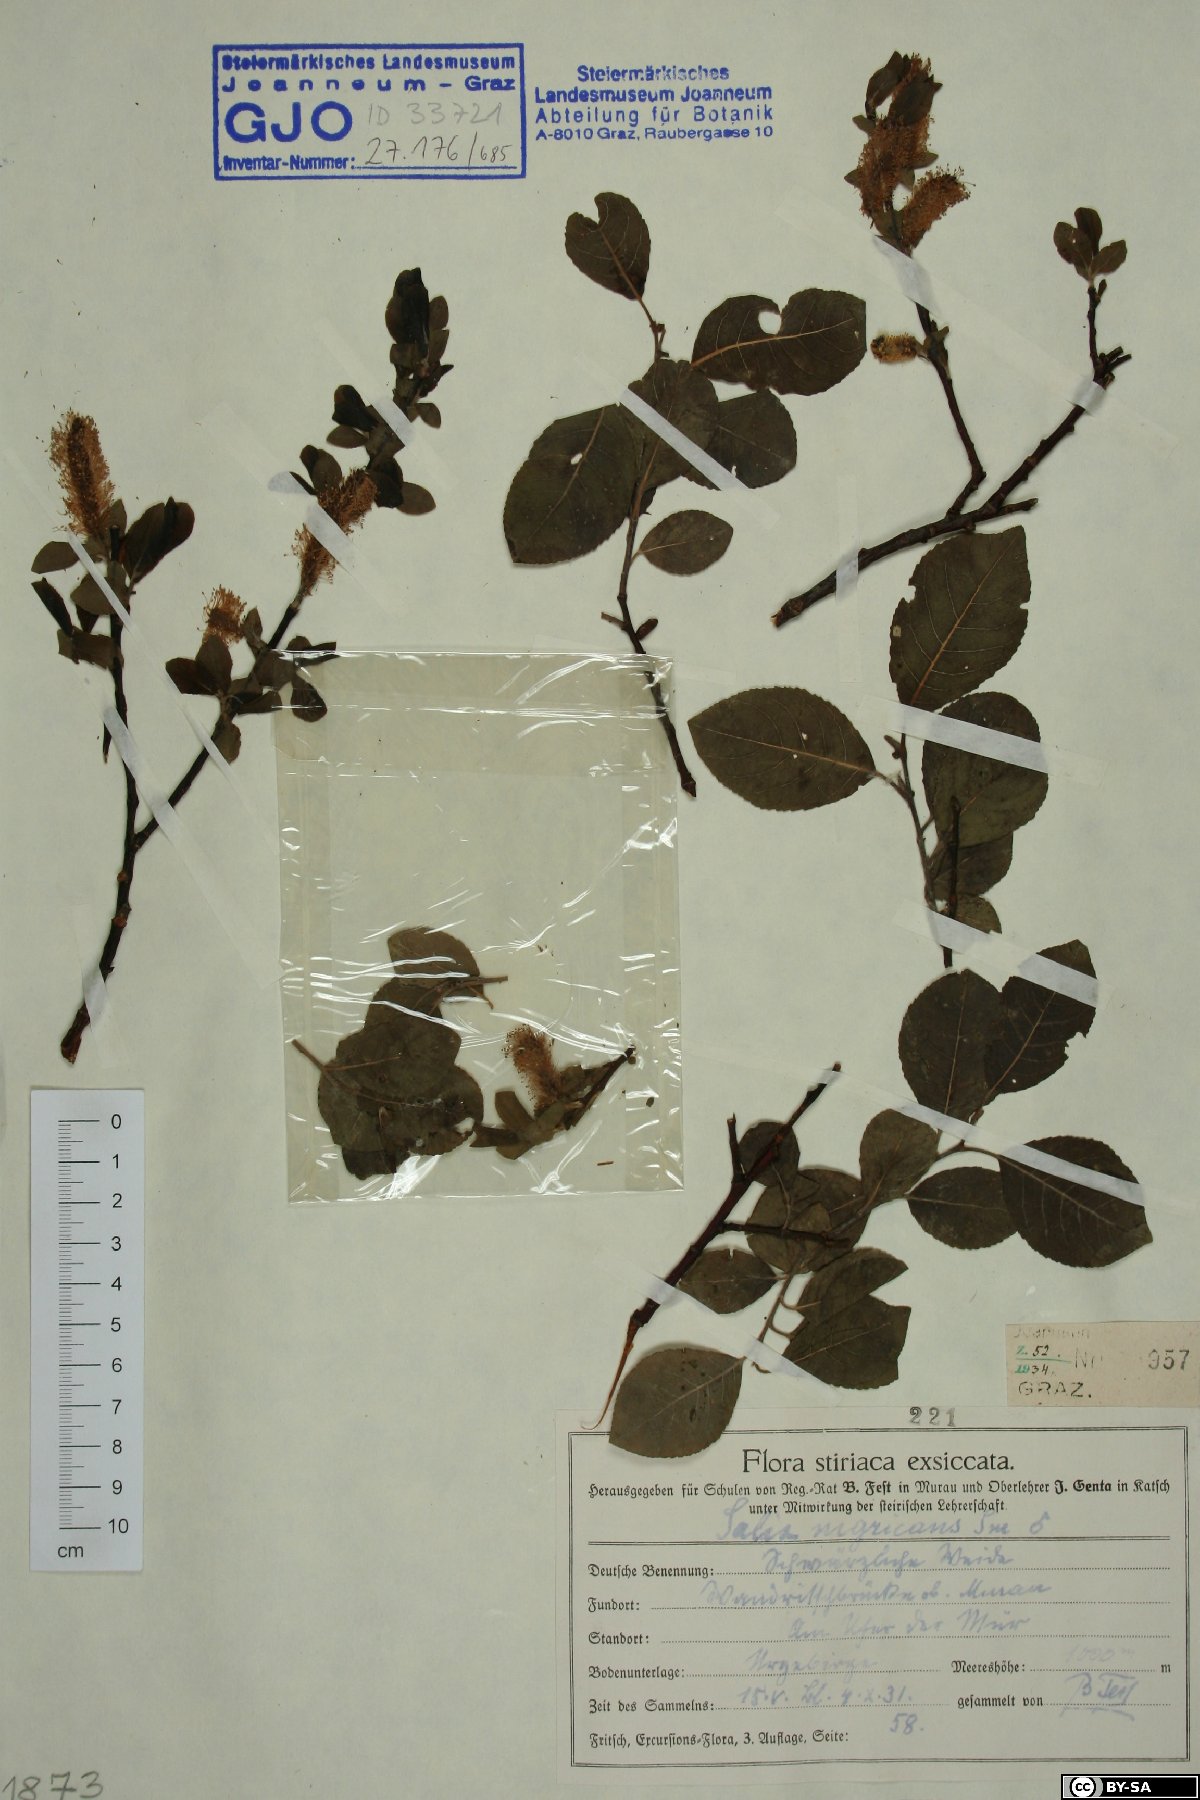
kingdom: Plantae
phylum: Tracheophyta
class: Magnoliopsida
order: Malpighiales
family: Salicaceae
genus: Salix
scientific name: Salix myrsinifolia
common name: Dark-leaved willow
